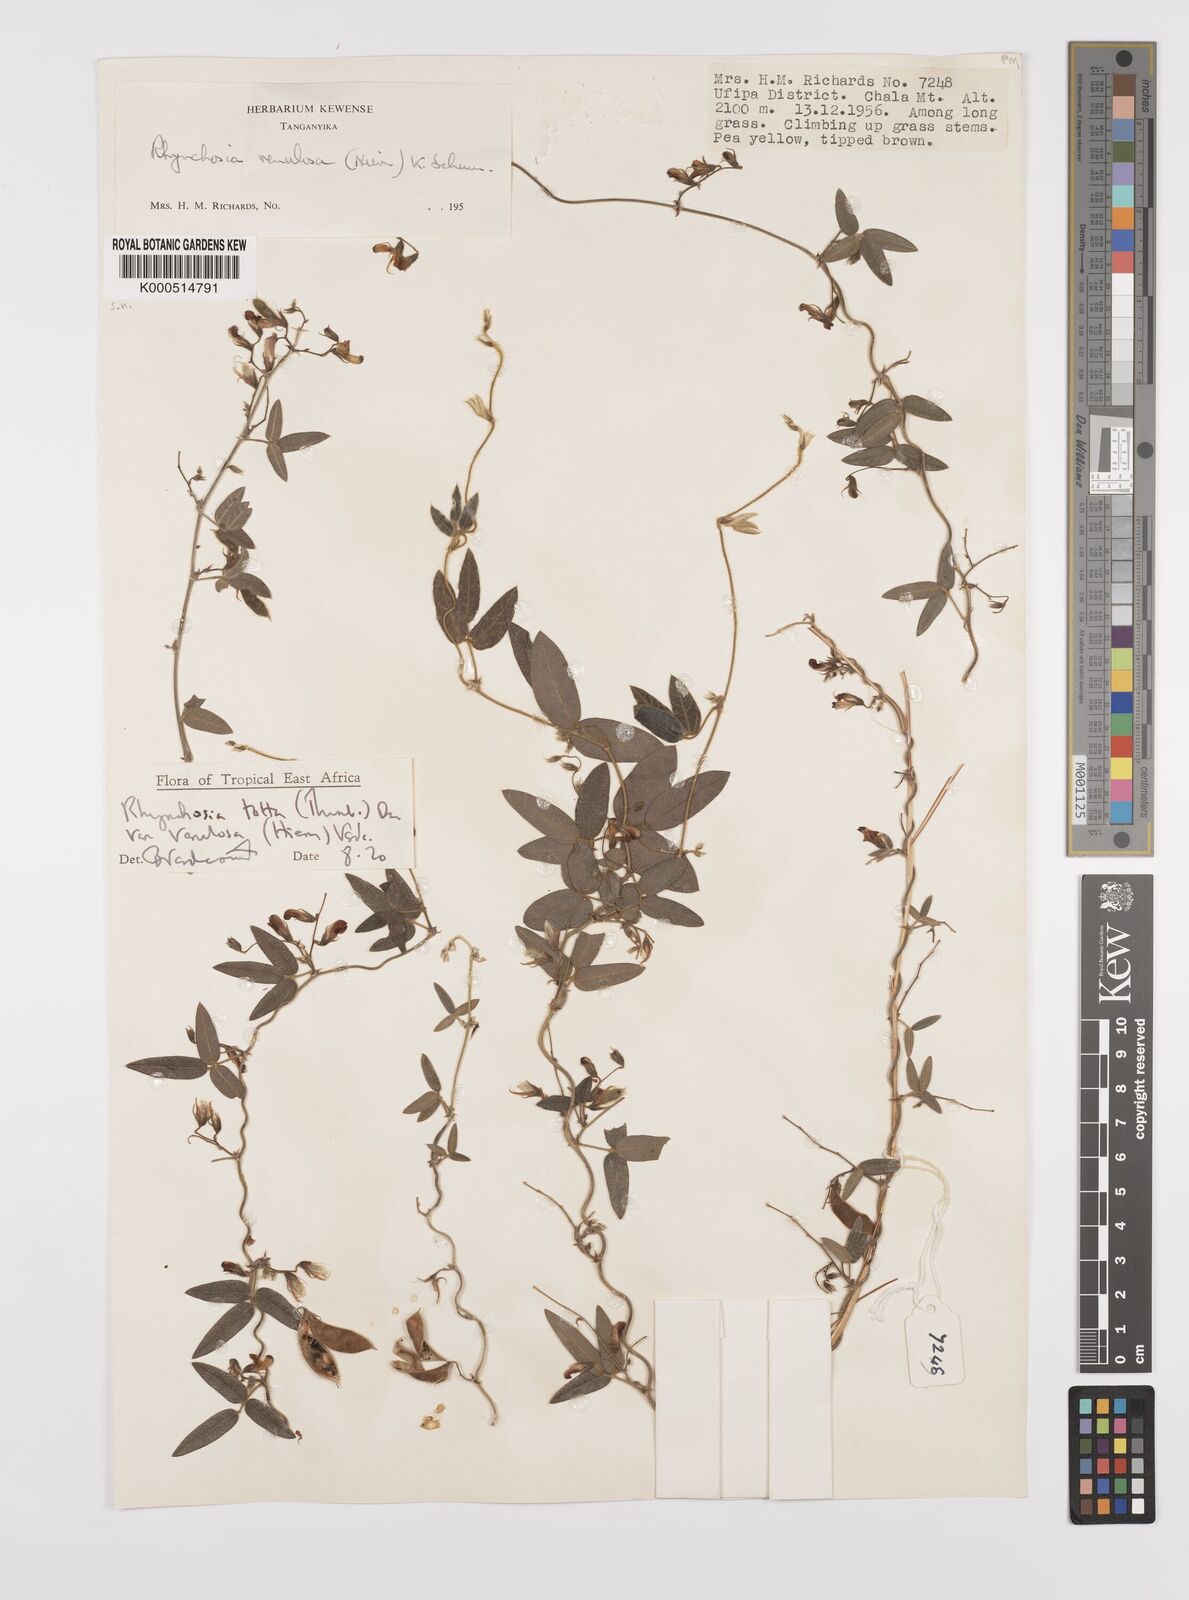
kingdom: Plantae
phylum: Tracheophyta
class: Magnoliopsida
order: Fabales
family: Fabaceae
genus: Rhynchosia
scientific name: Rhynchosia totta
